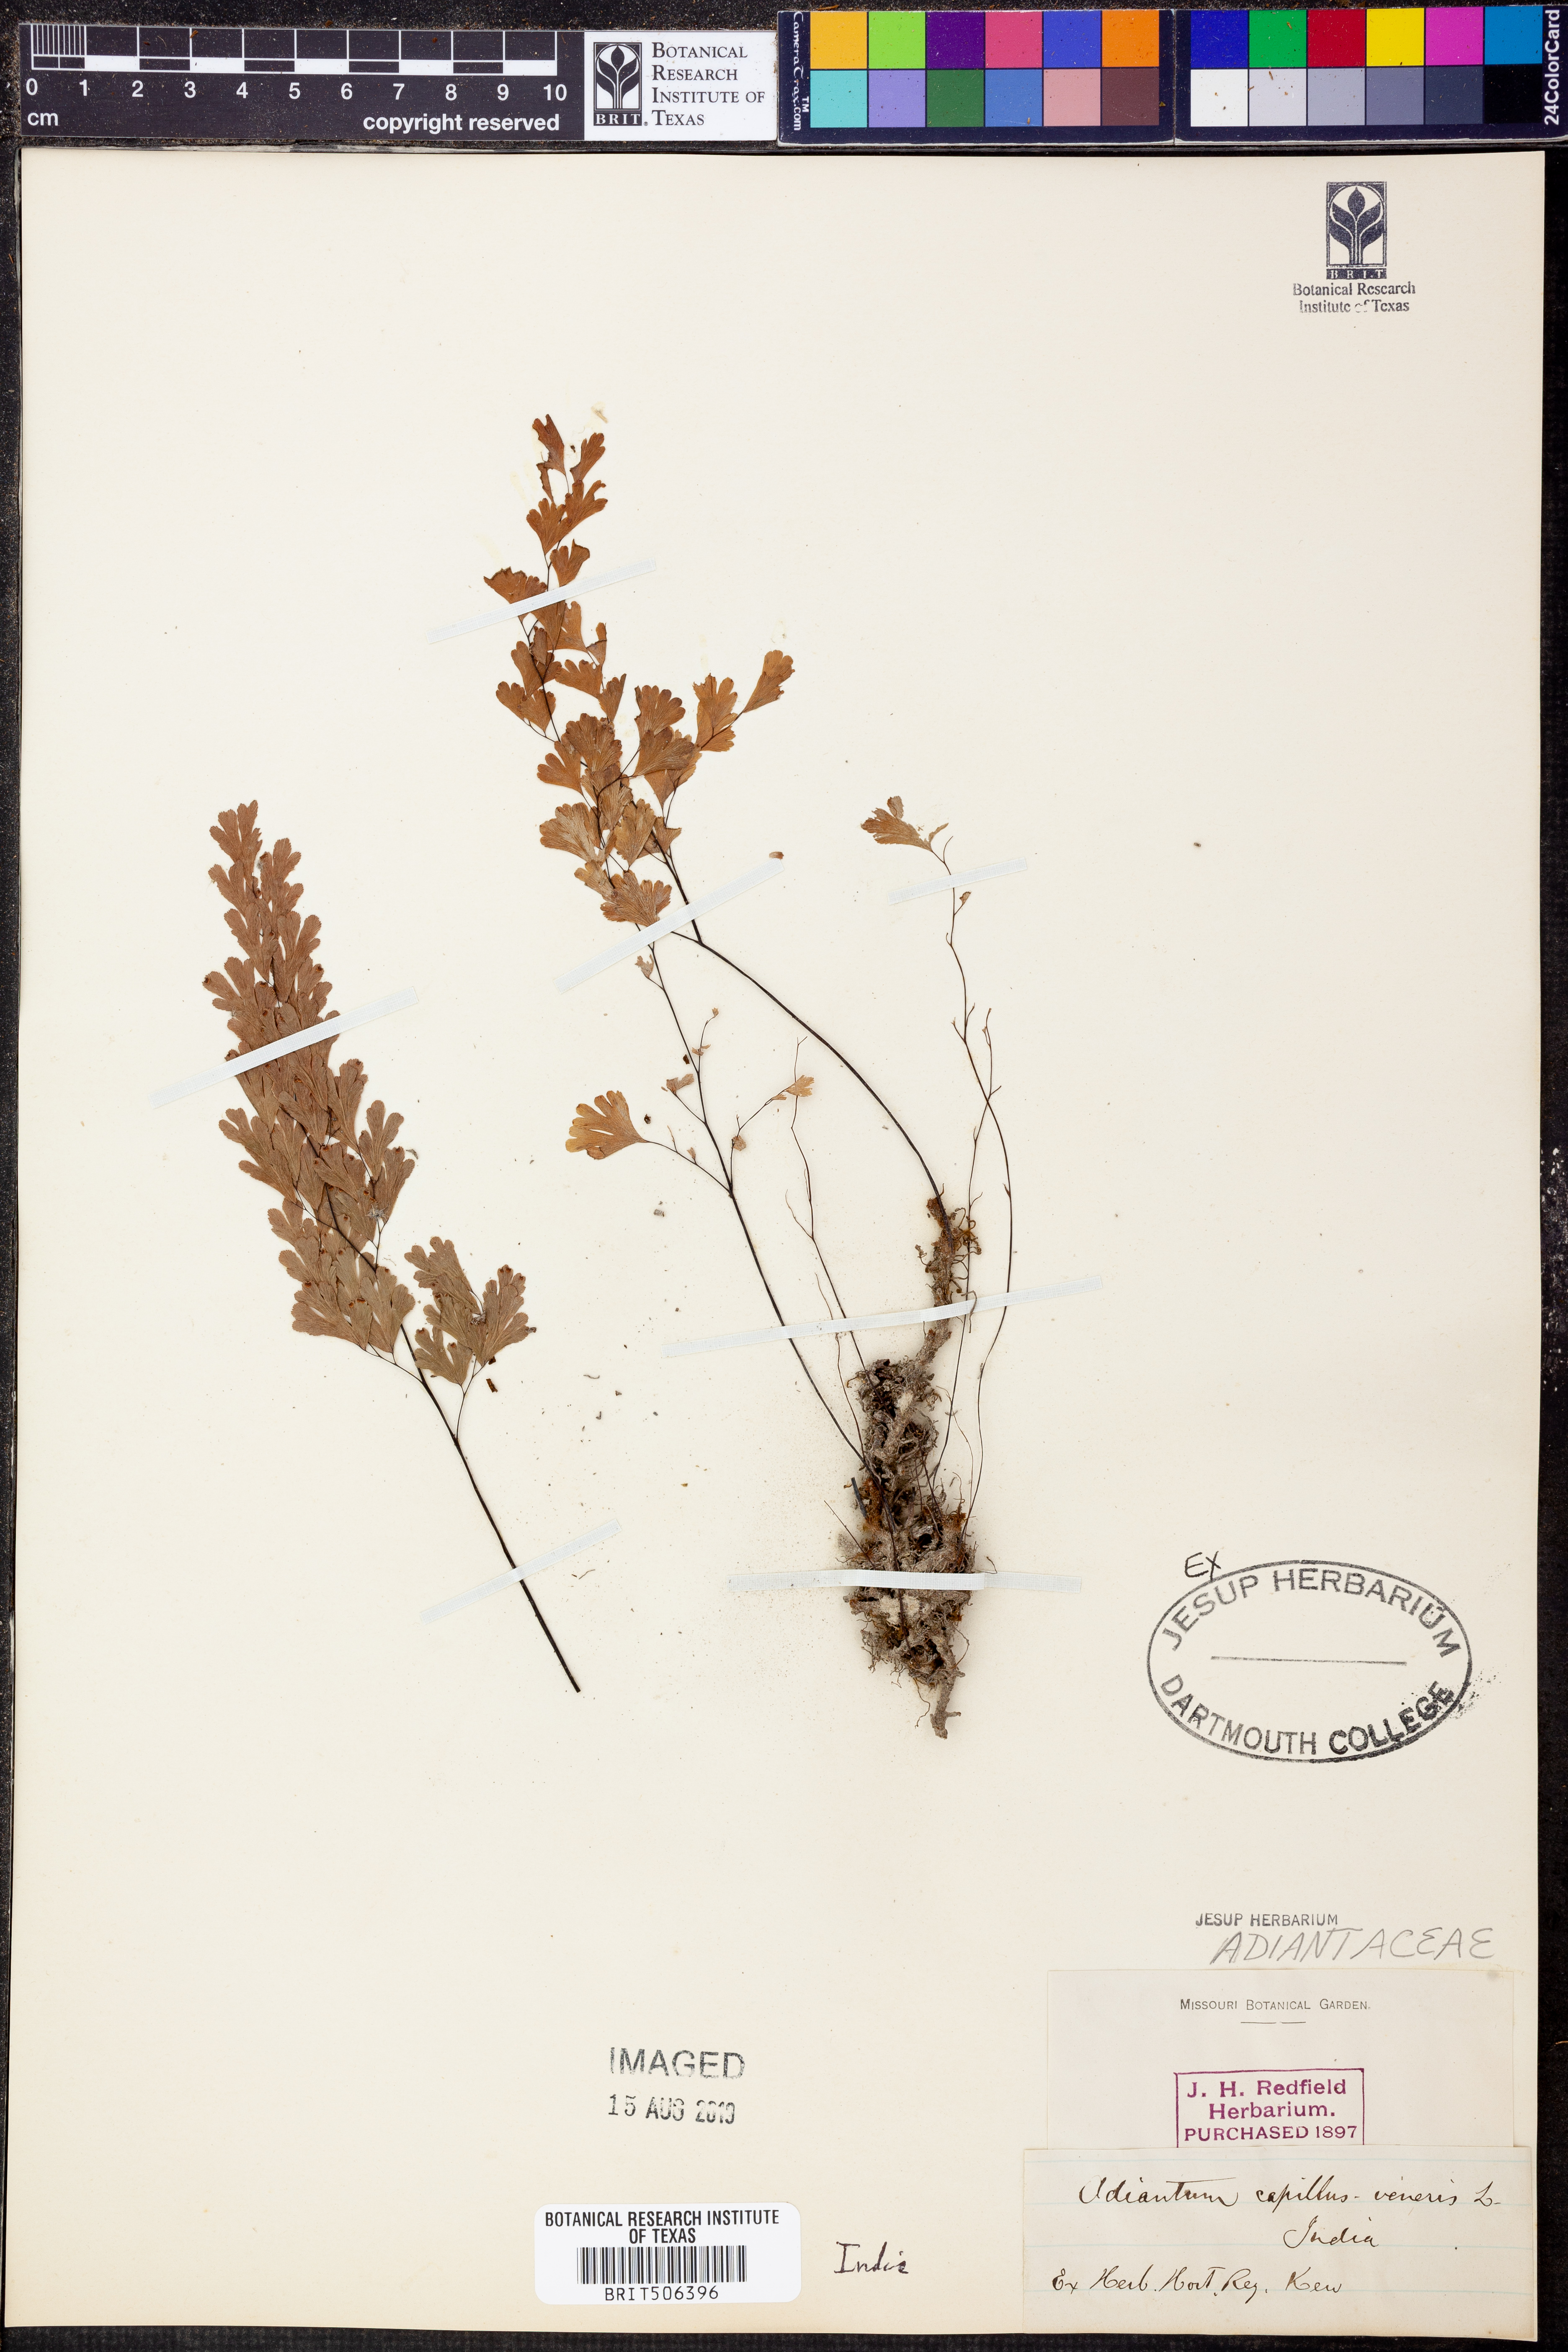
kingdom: Plantae
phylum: Tracheophyta
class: Polypodiopsida
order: Polypodiales
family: Pteridaceae
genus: Adiantum
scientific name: Adiantum capillus-veneris
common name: Maidenhair fern
